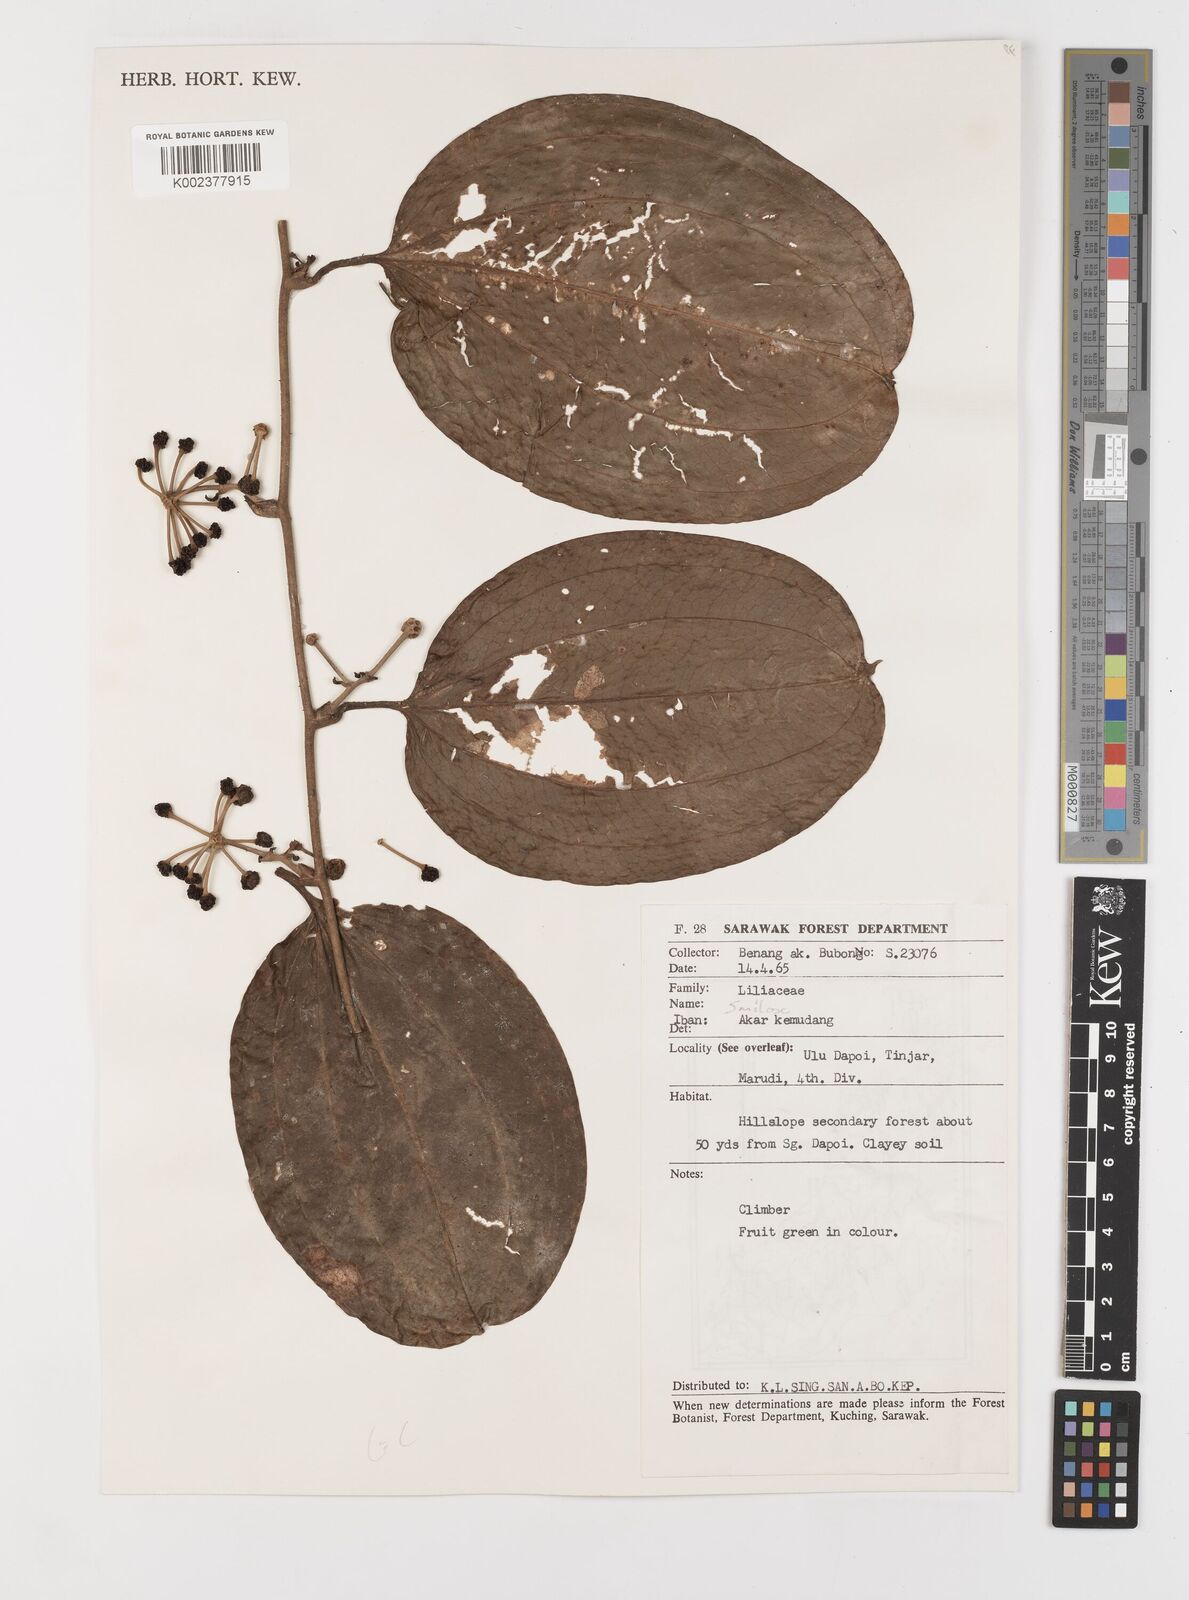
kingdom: Plantae
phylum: Tracheophyta
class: Liliopsida
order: Liliales
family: Smilacaceae
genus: Smilax
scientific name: Smilax
